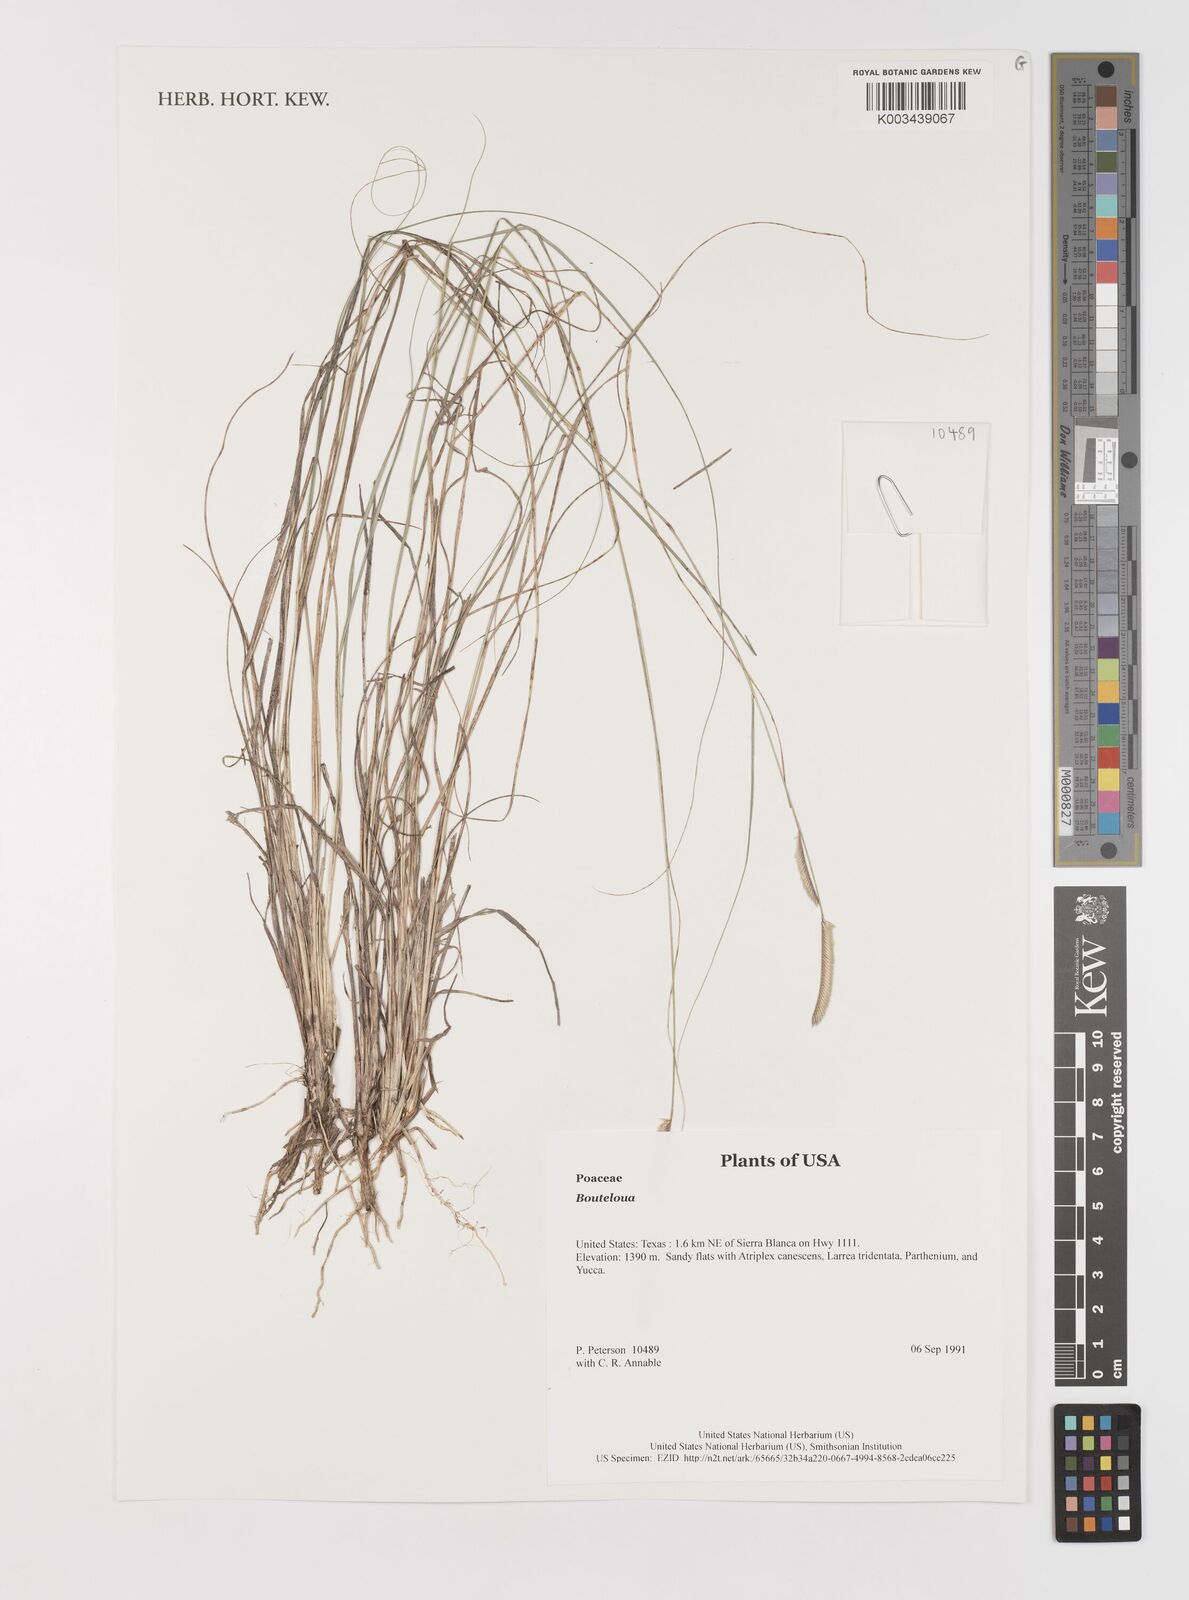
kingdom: Plantae
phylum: Tracheophyta
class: Liliopsida
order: Poales
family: Poaceae
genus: Bouteloua
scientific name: Bouteloua
